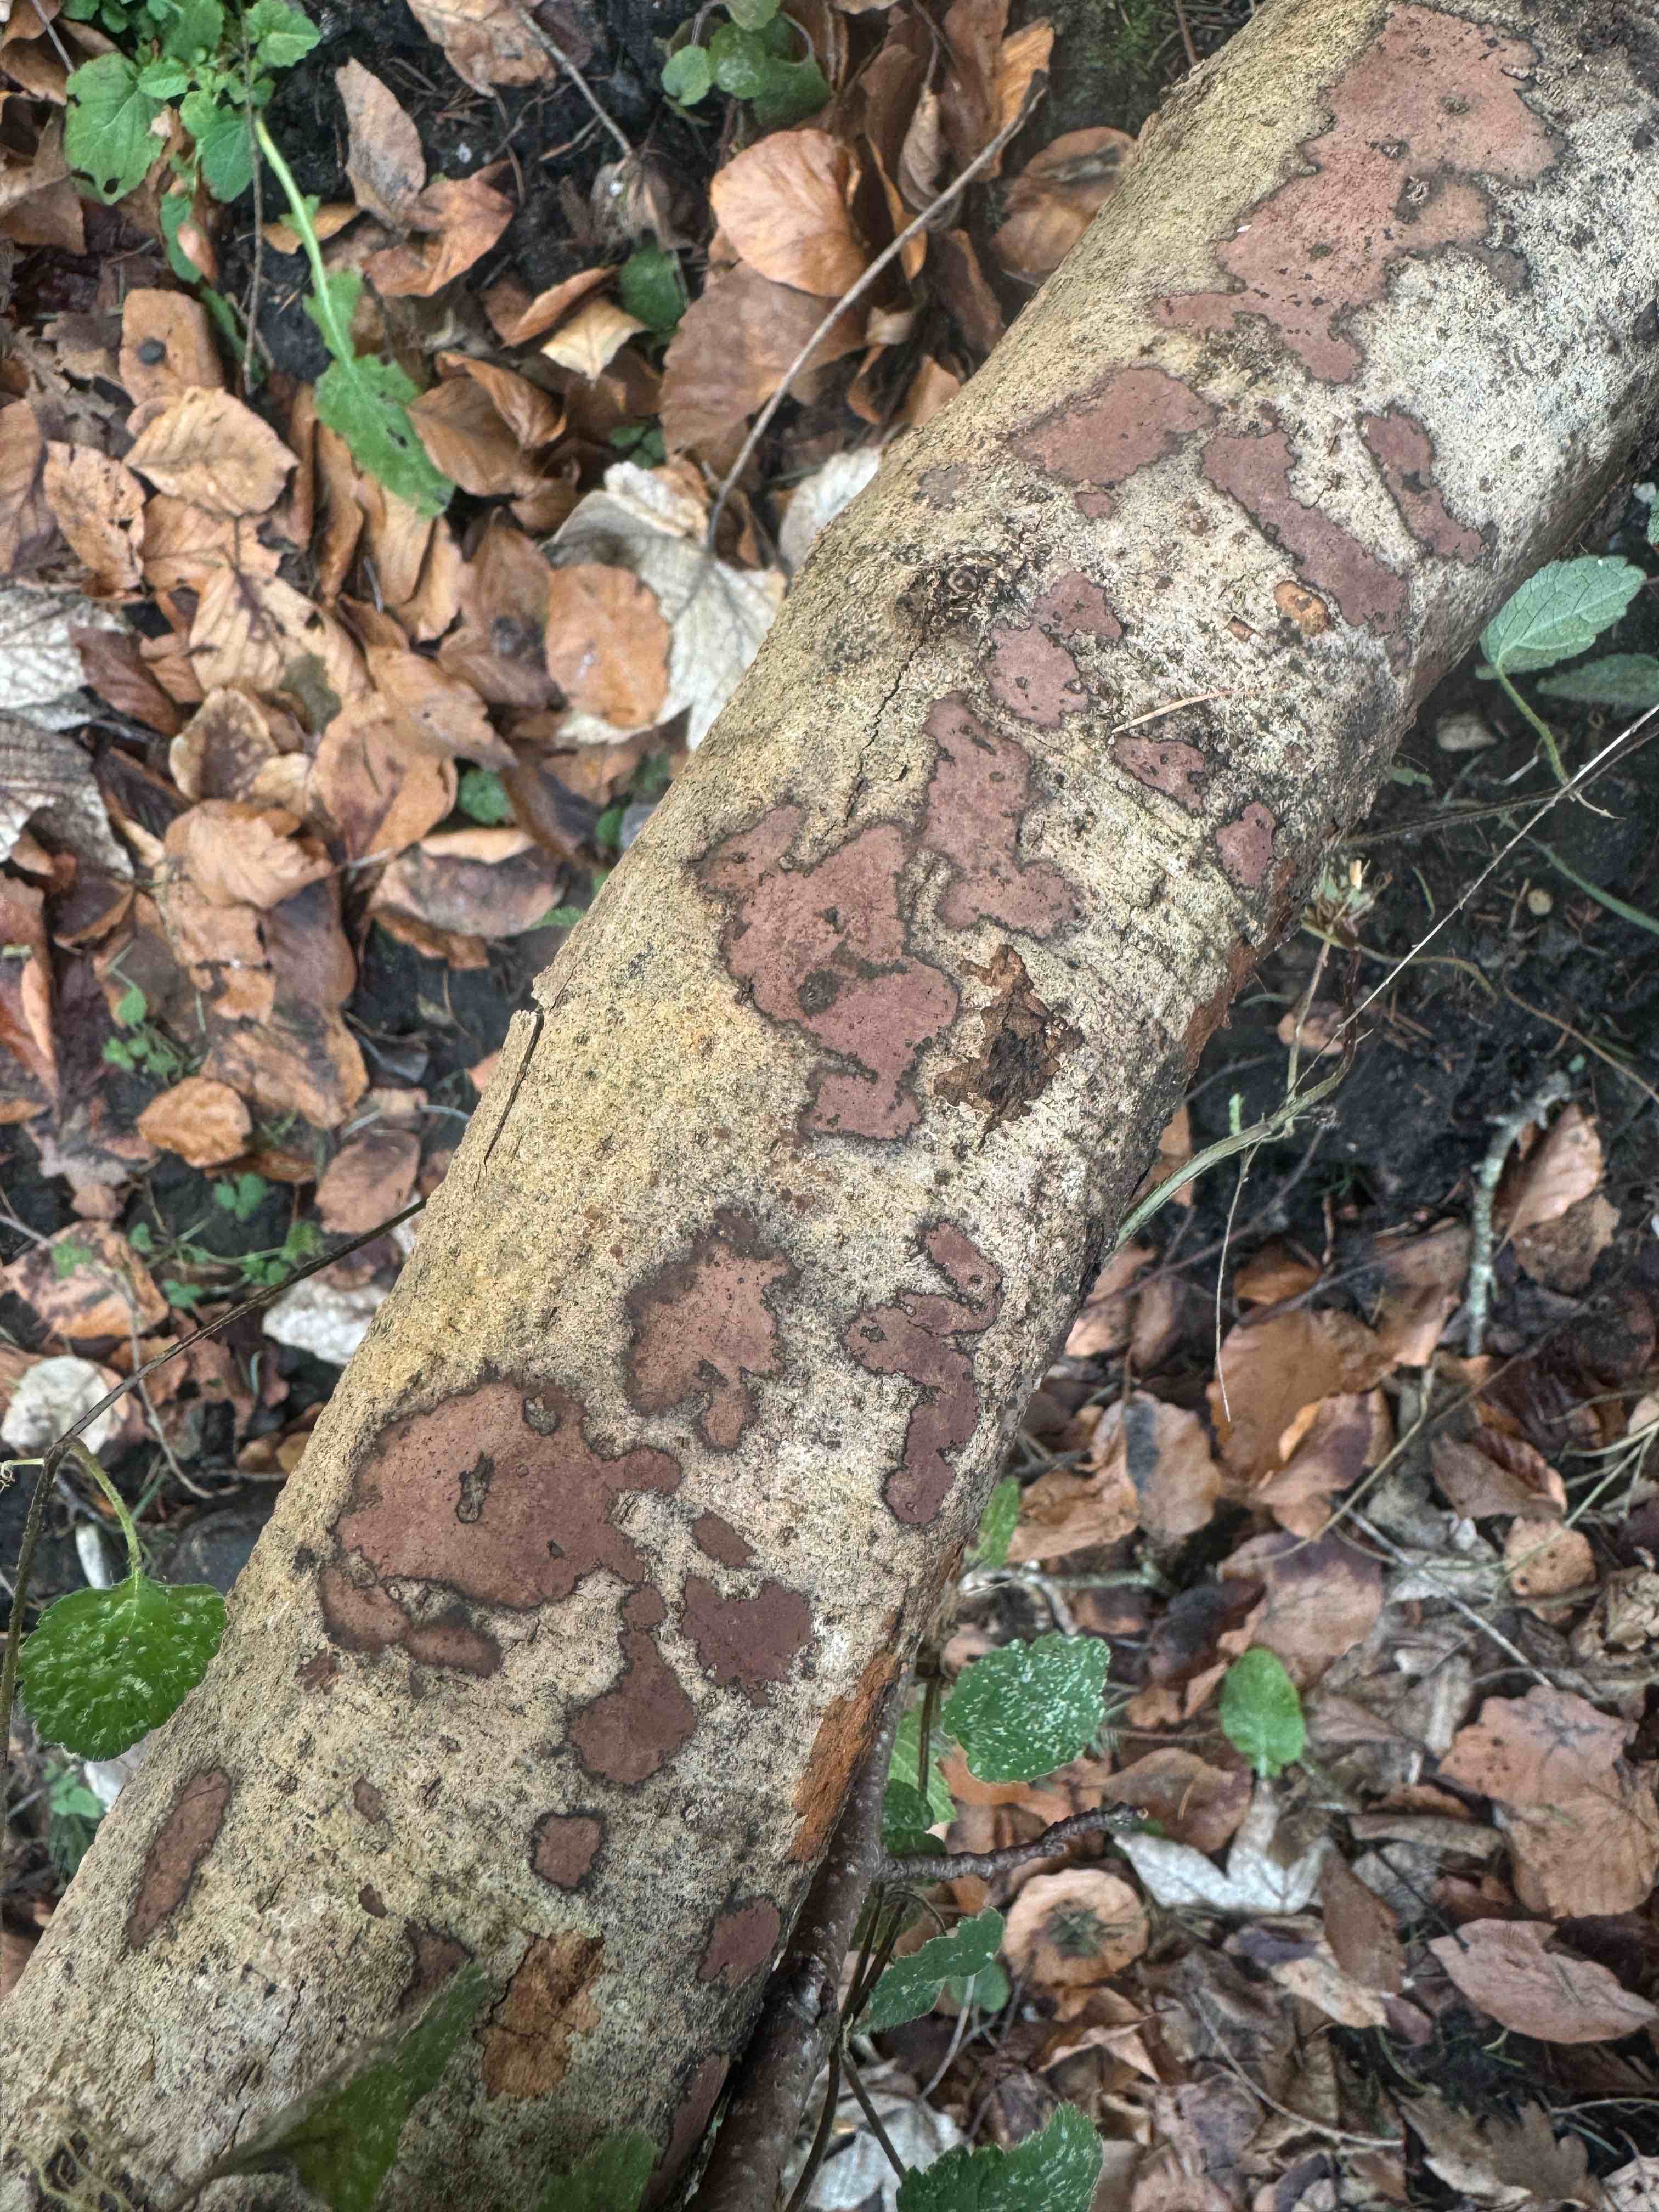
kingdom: Fungi
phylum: Ascomycota
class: Sordariomycetes
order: Xylariales
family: Hypoxylaceae
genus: Hypoxylon
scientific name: Hypoxylon petriniae
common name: nedsænket kulbær
